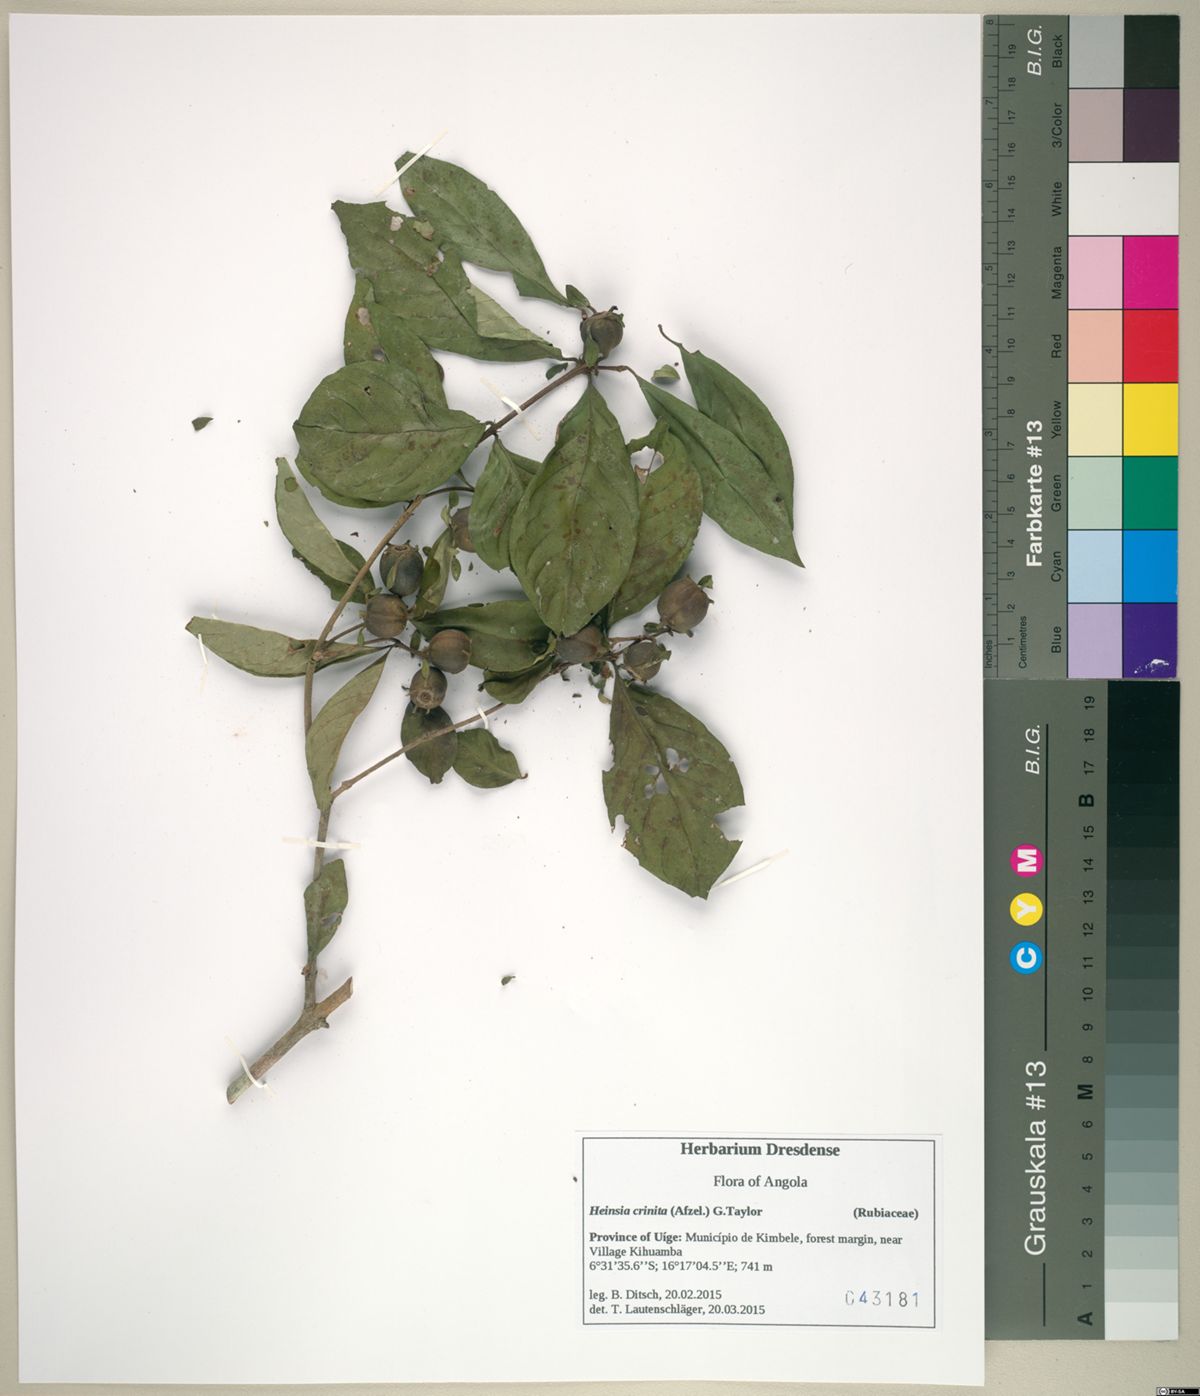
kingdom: Plantae
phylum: Tracheophyta
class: Magnoliopsida
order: Gentianales
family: Rubiaceae
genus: Heinsia
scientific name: Heinsia crinita
